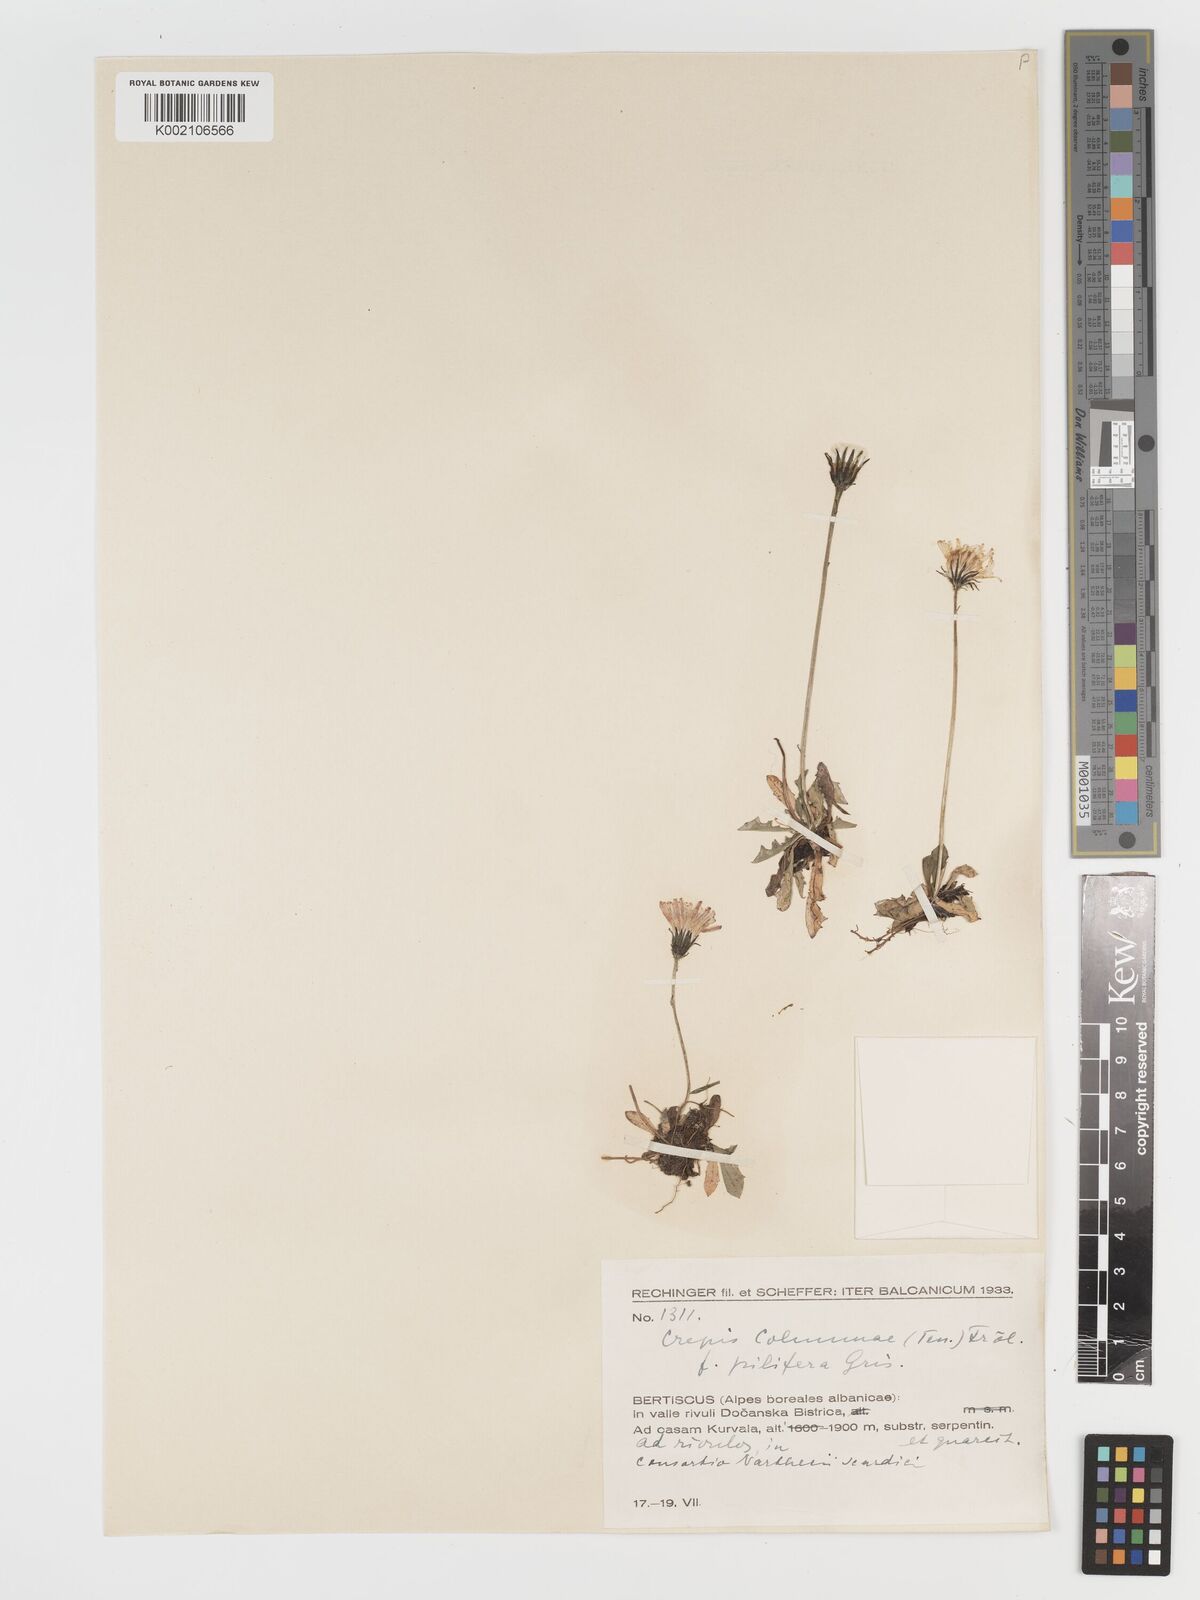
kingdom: Plantae
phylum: Tracheophyta
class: Magnoliopsida
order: Asterales
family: Asteraceae
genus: Crepis
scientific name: Crepis aurea
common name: Golden hawk's-beard
